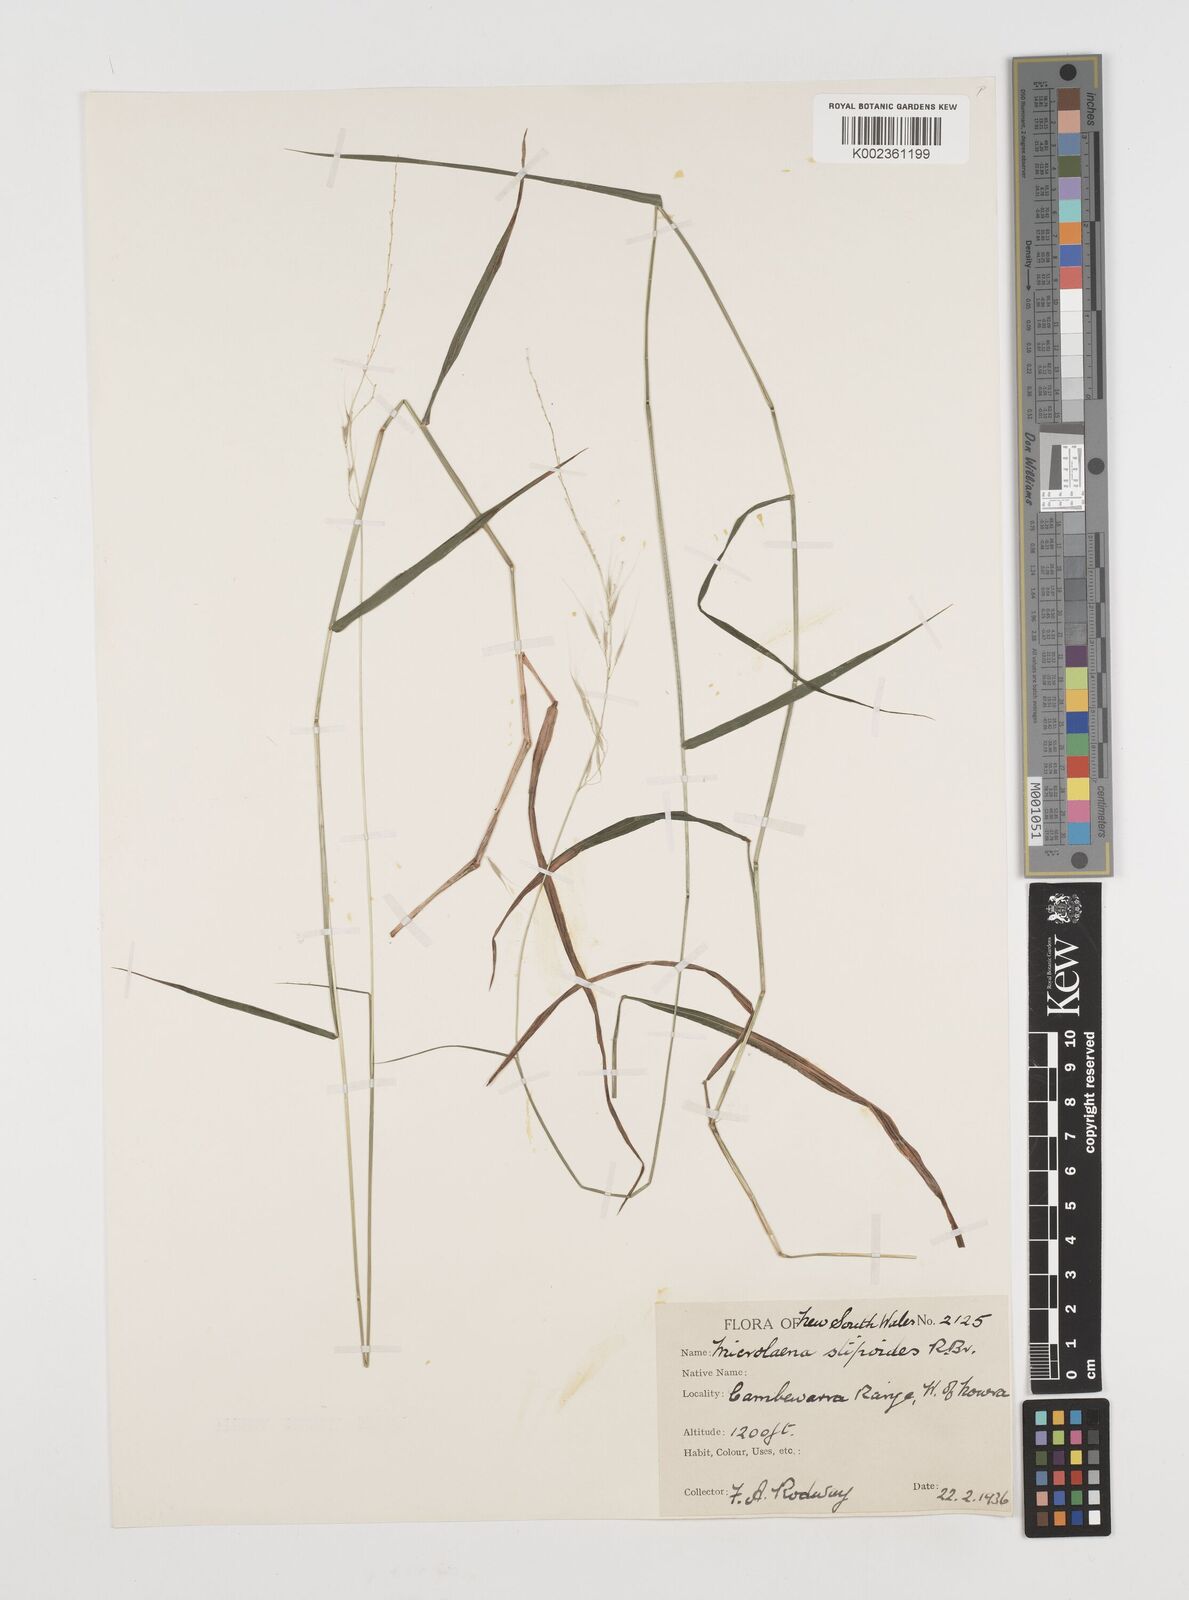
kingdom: Plantae
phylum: Tracheophyta
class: Liliopsida
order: Poales
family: Poaceae
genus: Microlaena
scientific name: Microlaena stipoides
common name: Meadow ricegrass
